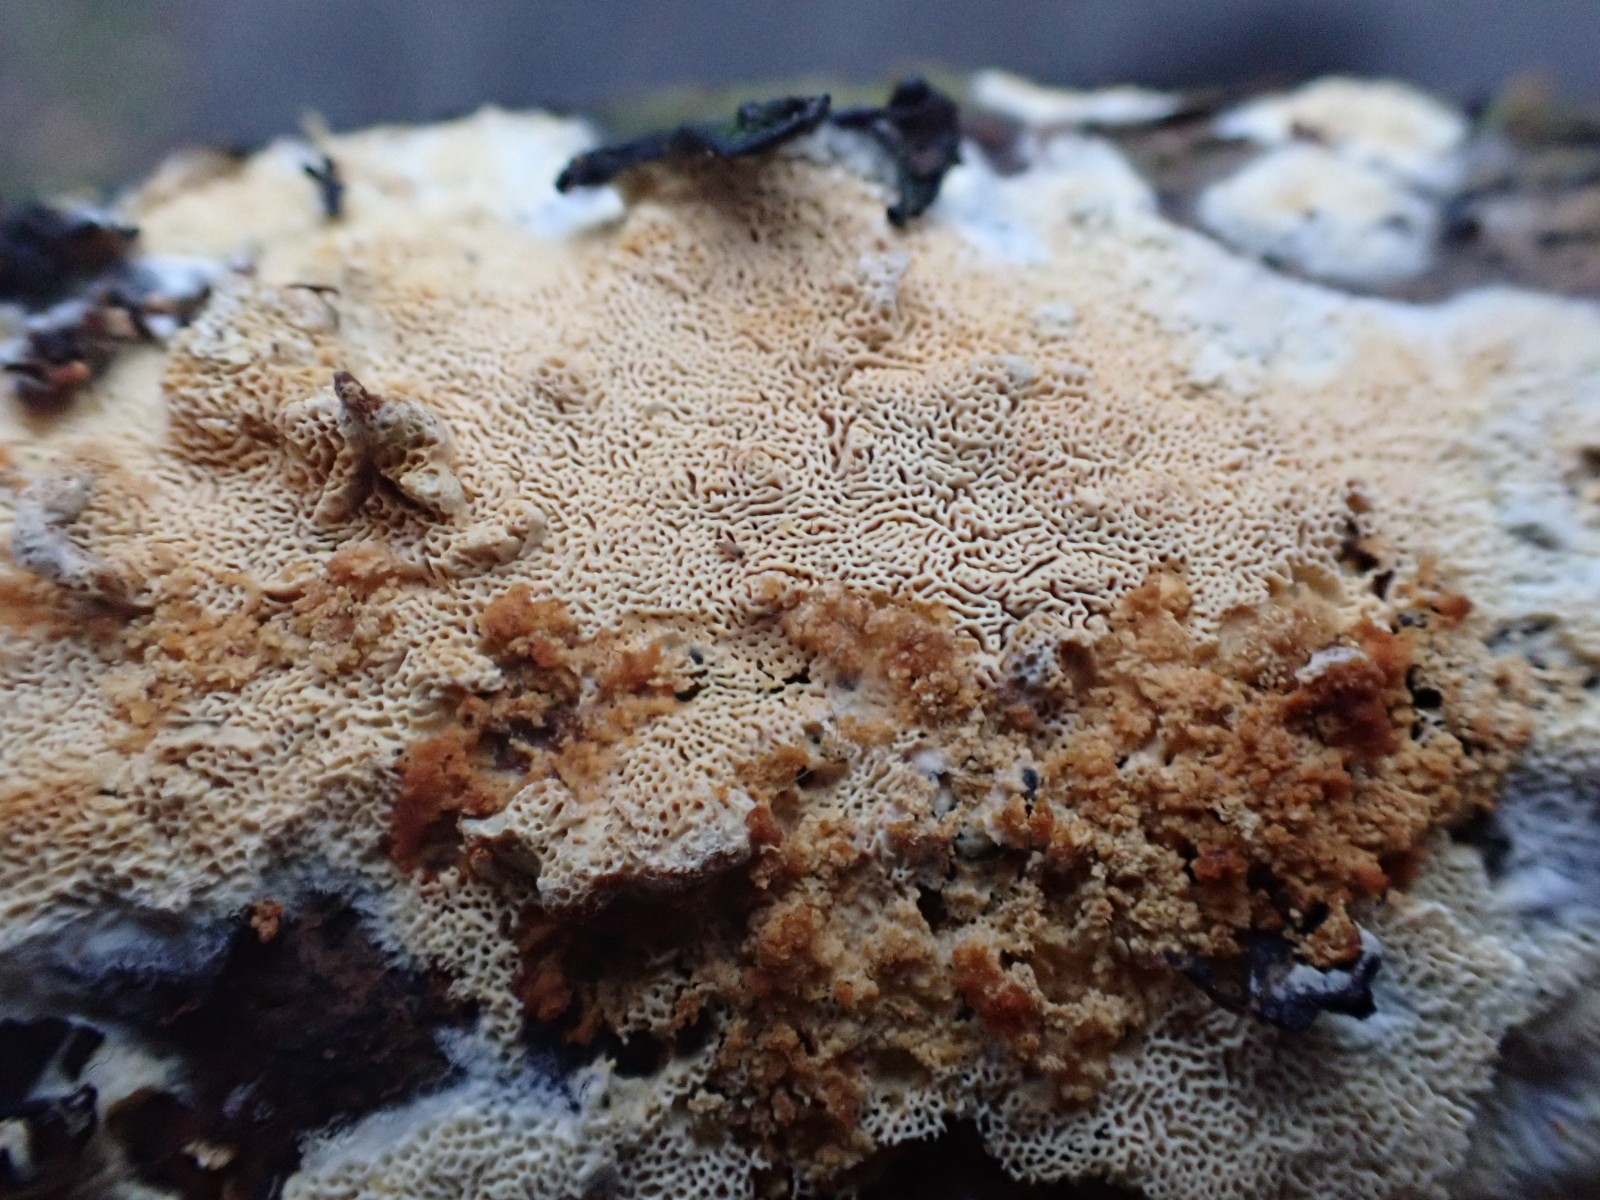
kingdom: Fungi
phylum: Basidiomycota
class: Agaricomycetes
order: Hymenochaetales
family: Schizoporaceae
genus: Xylodon
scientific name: Xylodon subtropicus
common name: labyrint-tandsvamp
